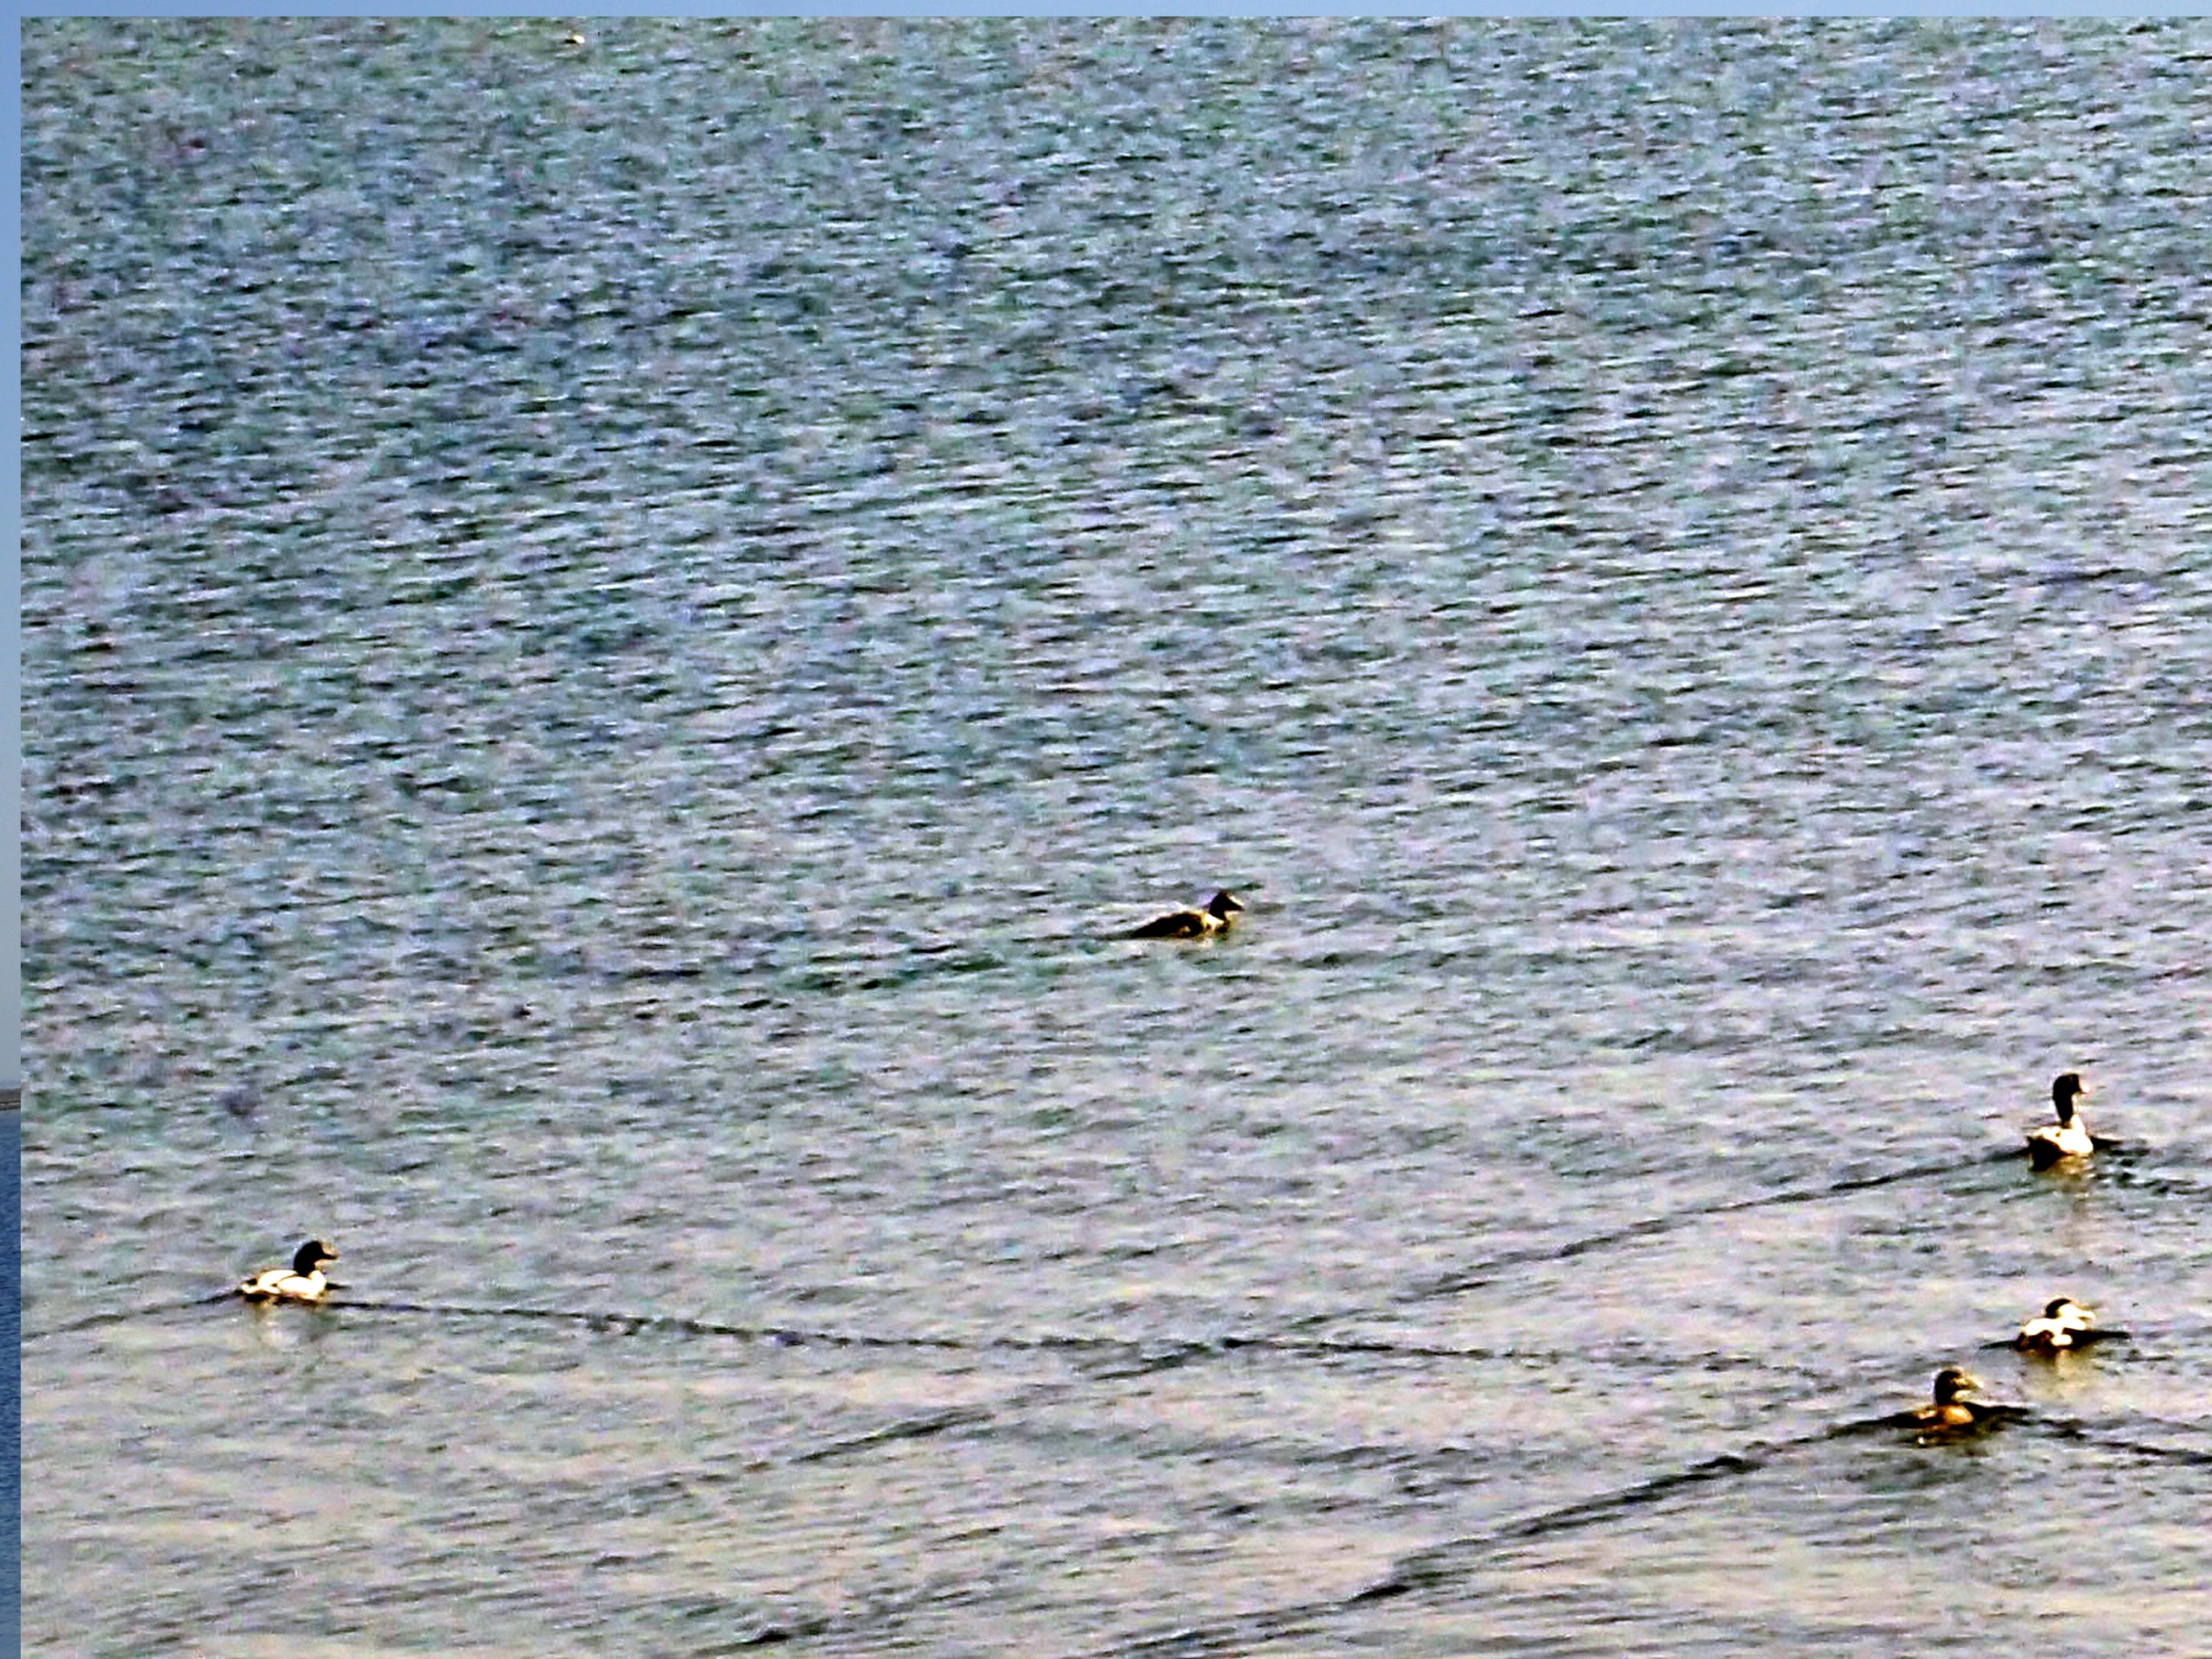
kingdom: Animalia
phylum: Chordata
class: Aves
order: Anseriformes
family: Anatidae
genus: Somateria
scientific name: Somateria mollissima
